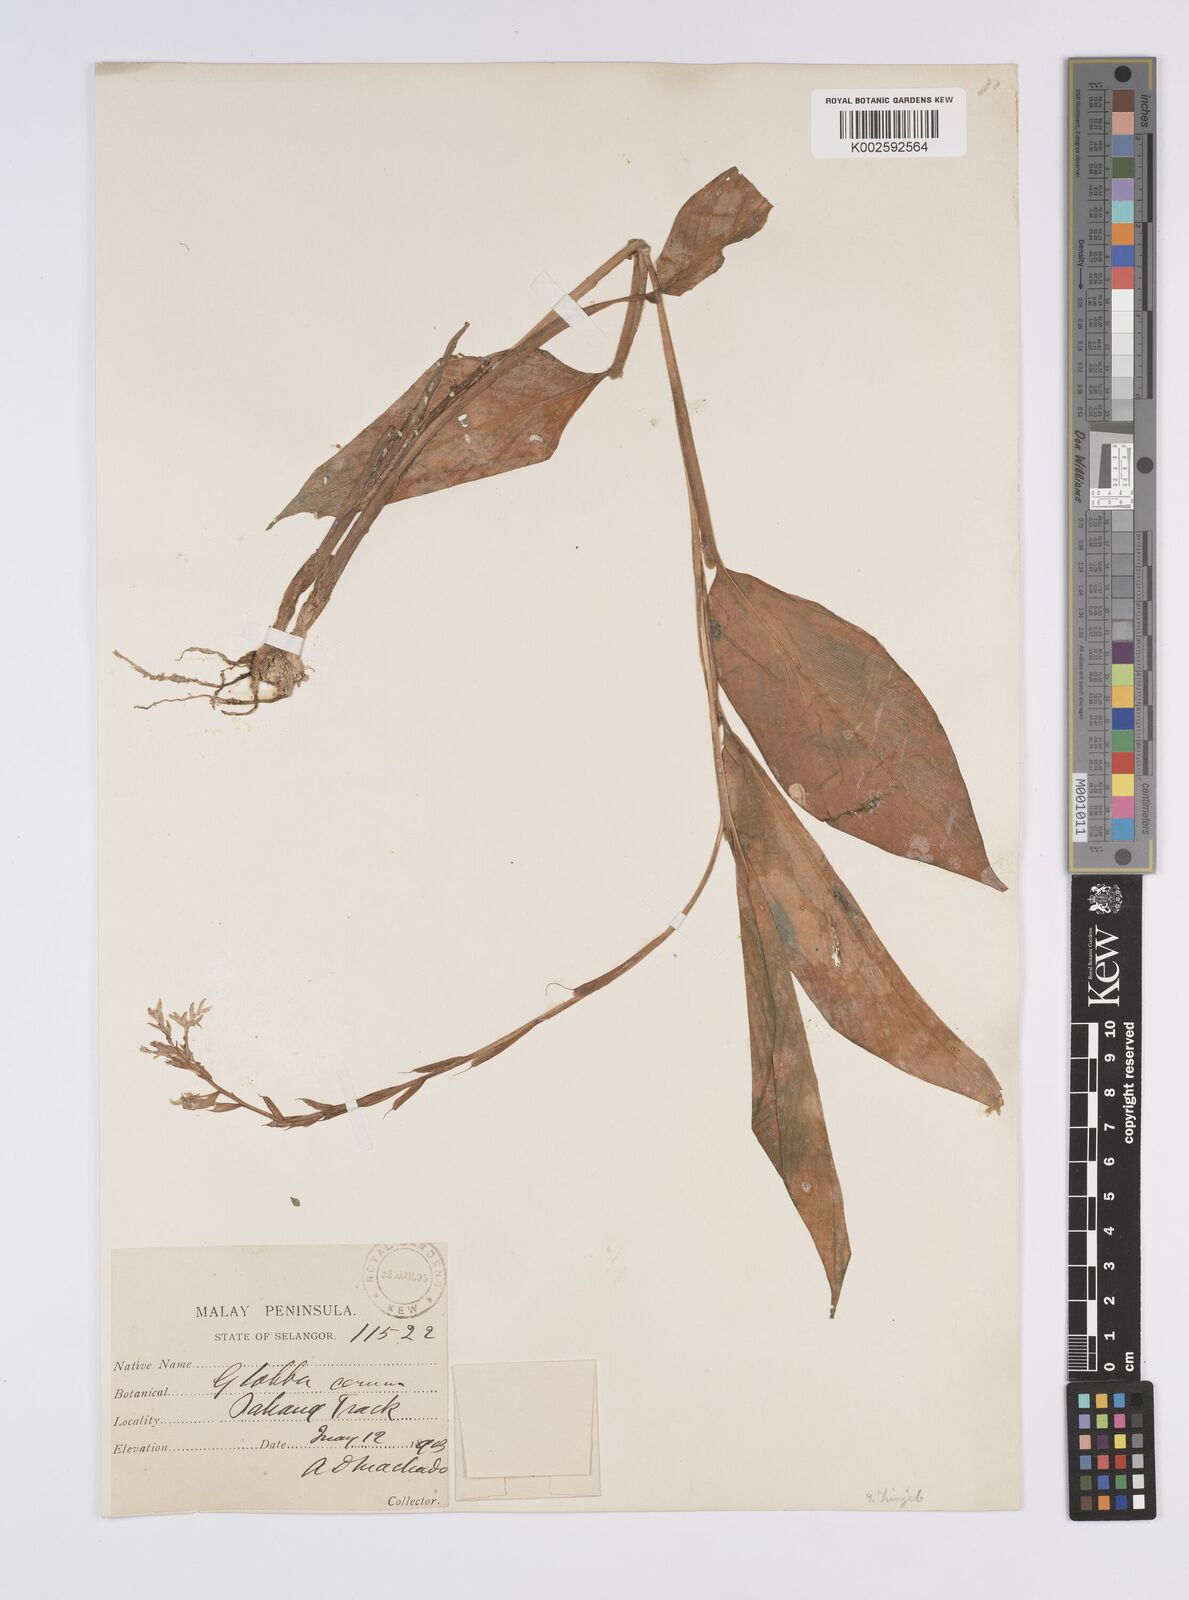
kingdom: Plantae
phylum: Tracheophyta
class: Liliopsida
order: Zingiberales
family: Zingiberaceae
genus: Globba
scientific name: Globba variabilis
